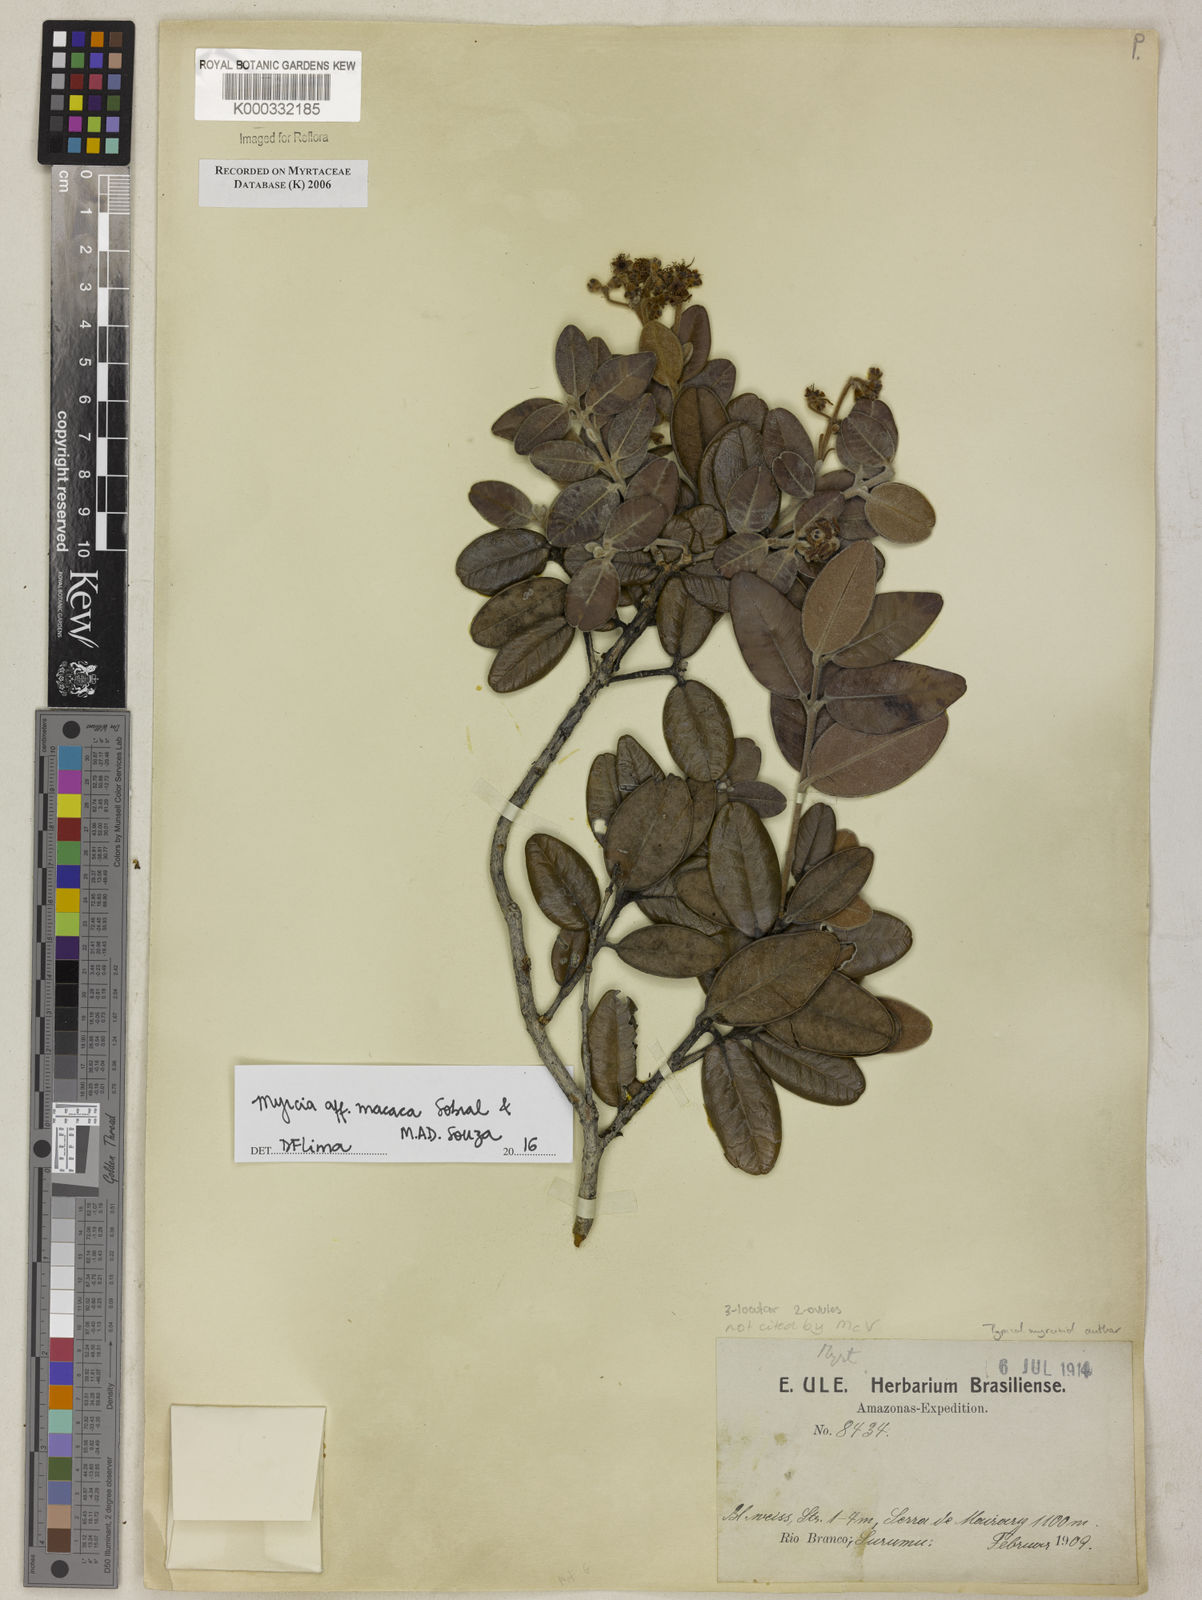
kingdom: Plantae
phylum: Tracheophyta
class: Magnoliopsida
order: Myrtales
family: Myrtaceae
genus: Myrcia
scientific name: Myrcia
